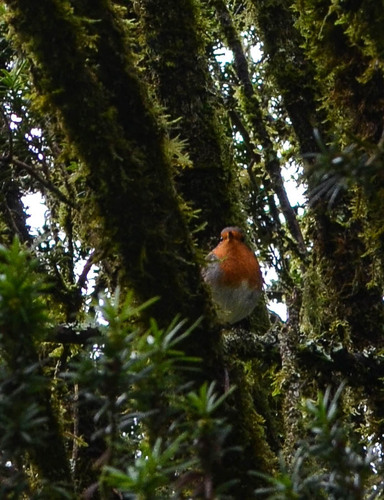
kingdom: Animalia
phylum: Chordata
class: Aves
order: Passeriformes
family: Muscicapidae
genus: Erithacus
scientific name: Erithacus rubecula
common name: European robin
